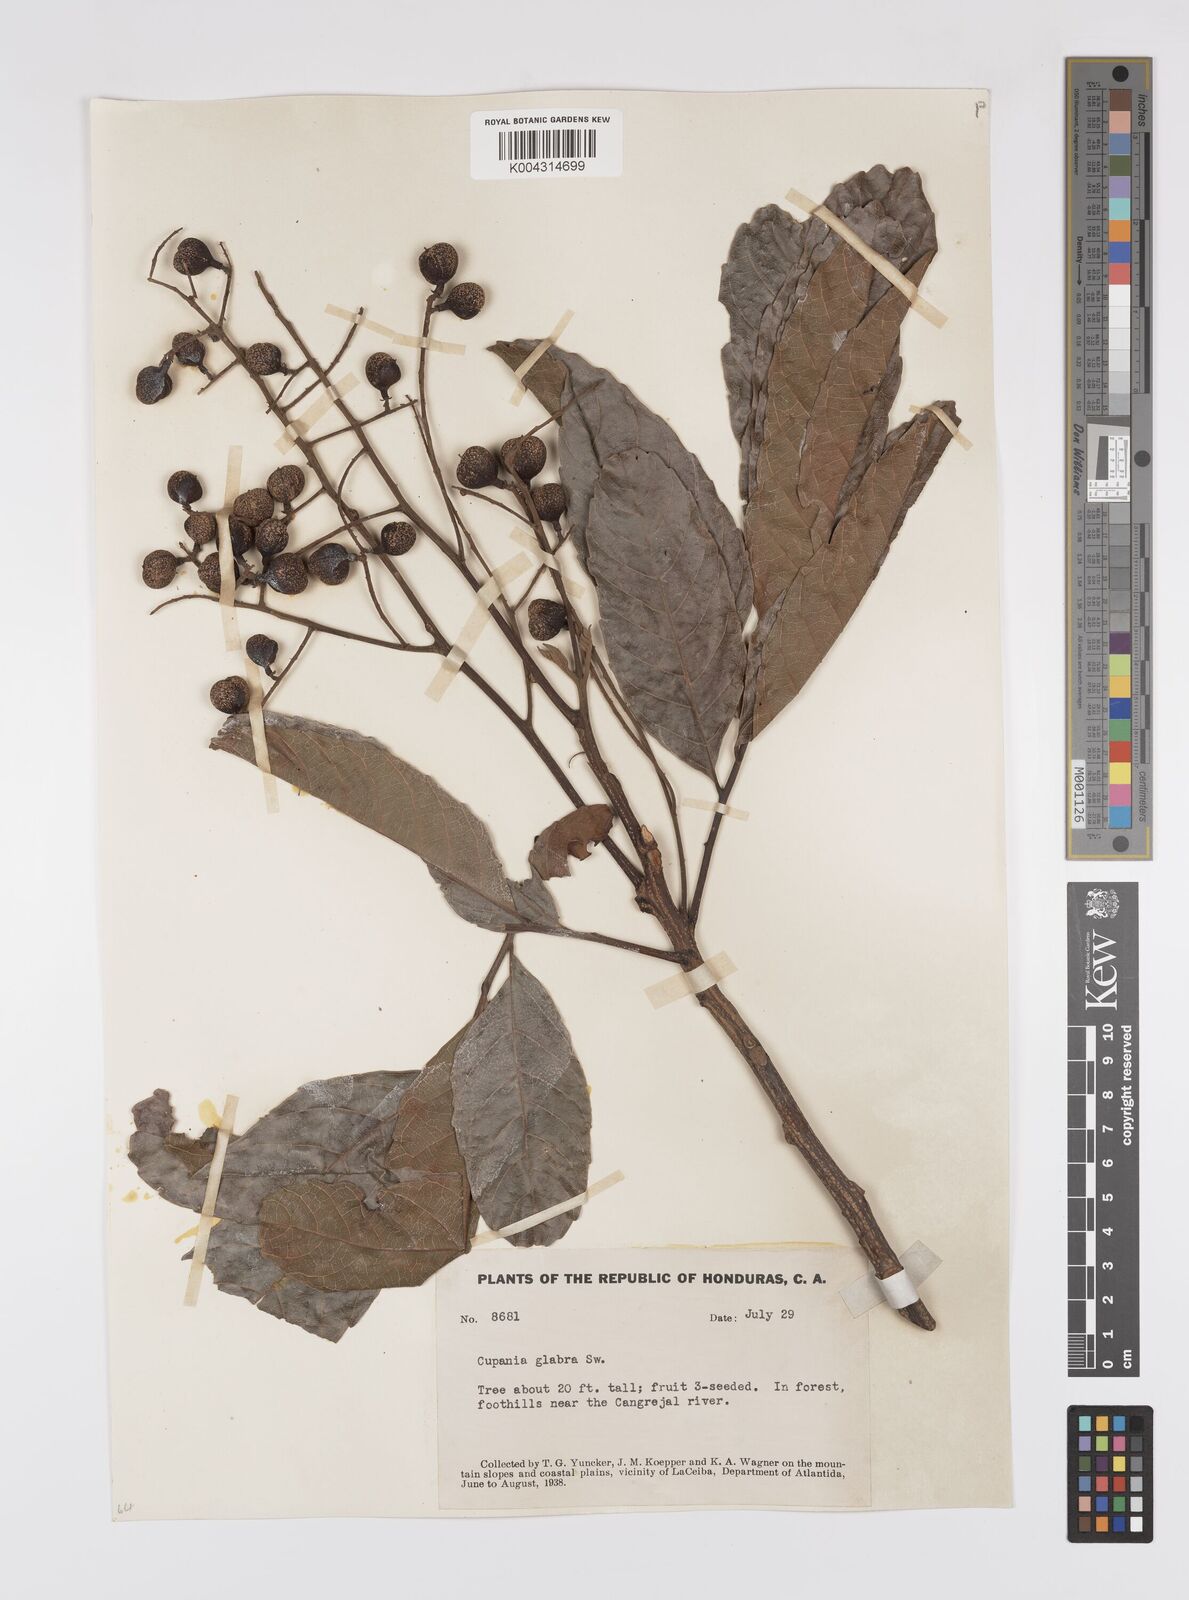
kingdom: Plantae
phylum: Tracheophyta
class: Magnoliopsida
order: Sapindales
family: Sapindaceae
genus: Cupania
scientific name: Cupania
